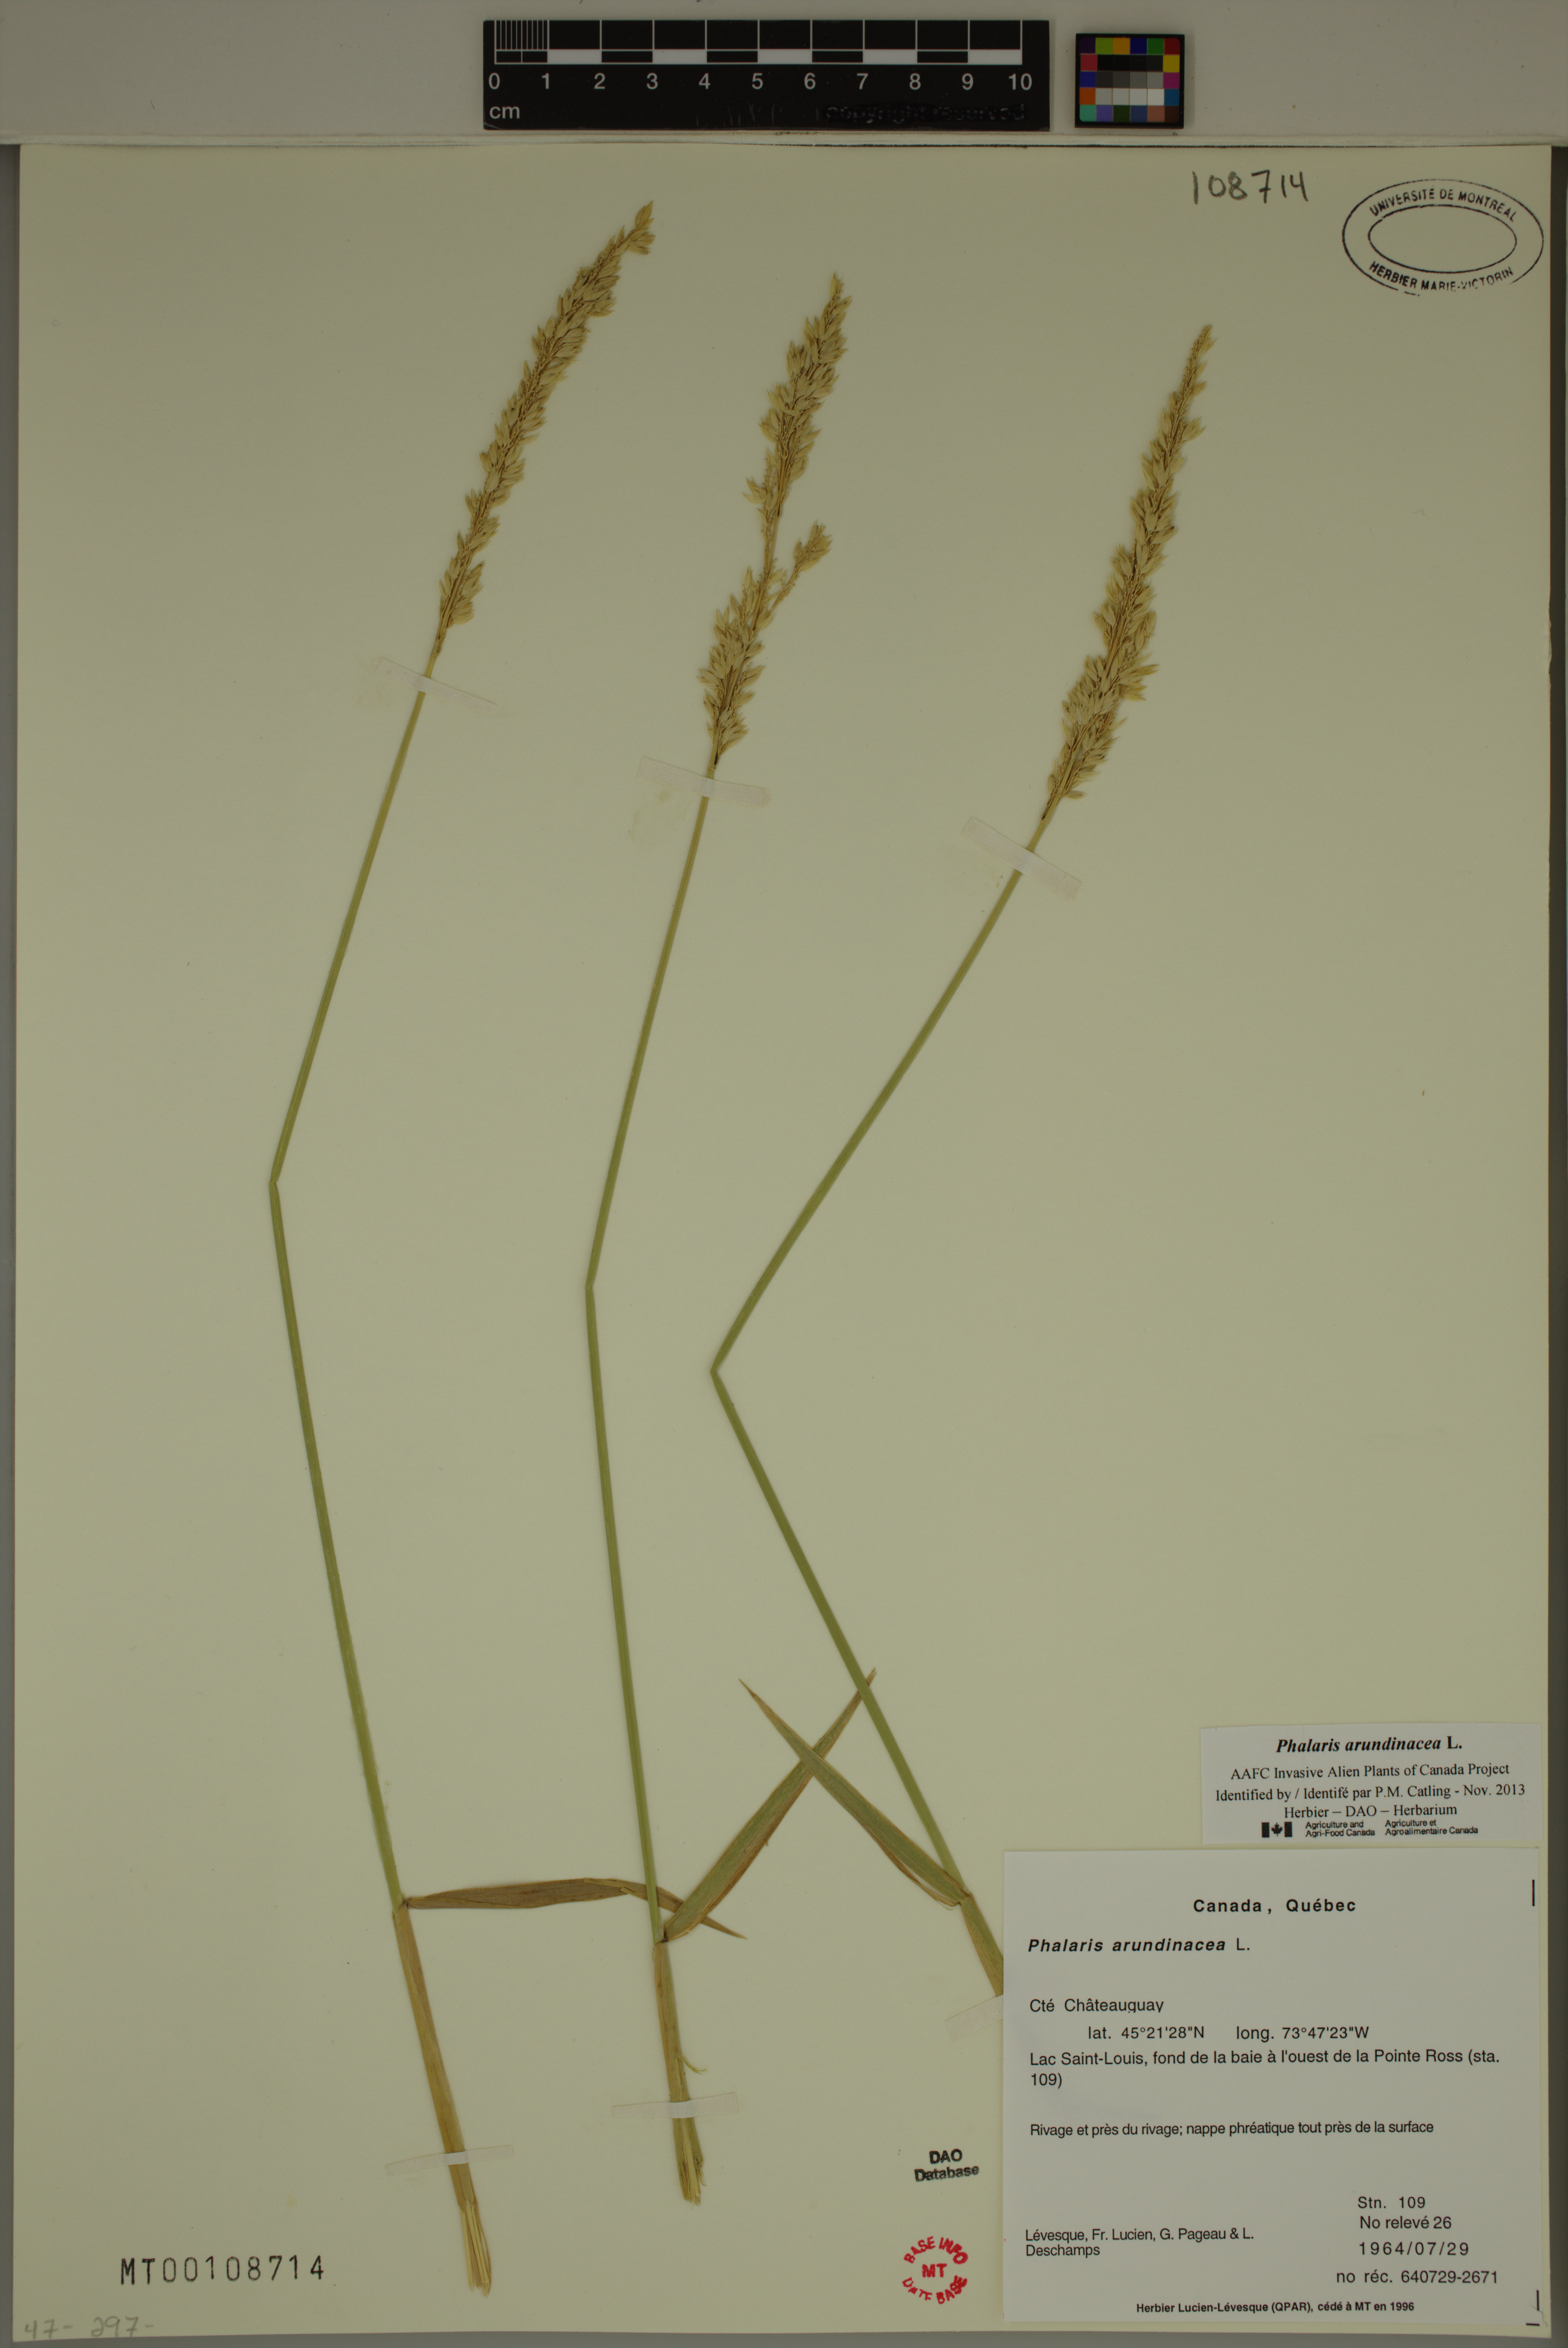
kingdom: Plantae
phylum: Tracheophyta
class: Liliopsida
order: Poales
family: Poaceae
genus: Phalaris
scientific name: Phalaris arundinacea
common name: Reed canary-grass
